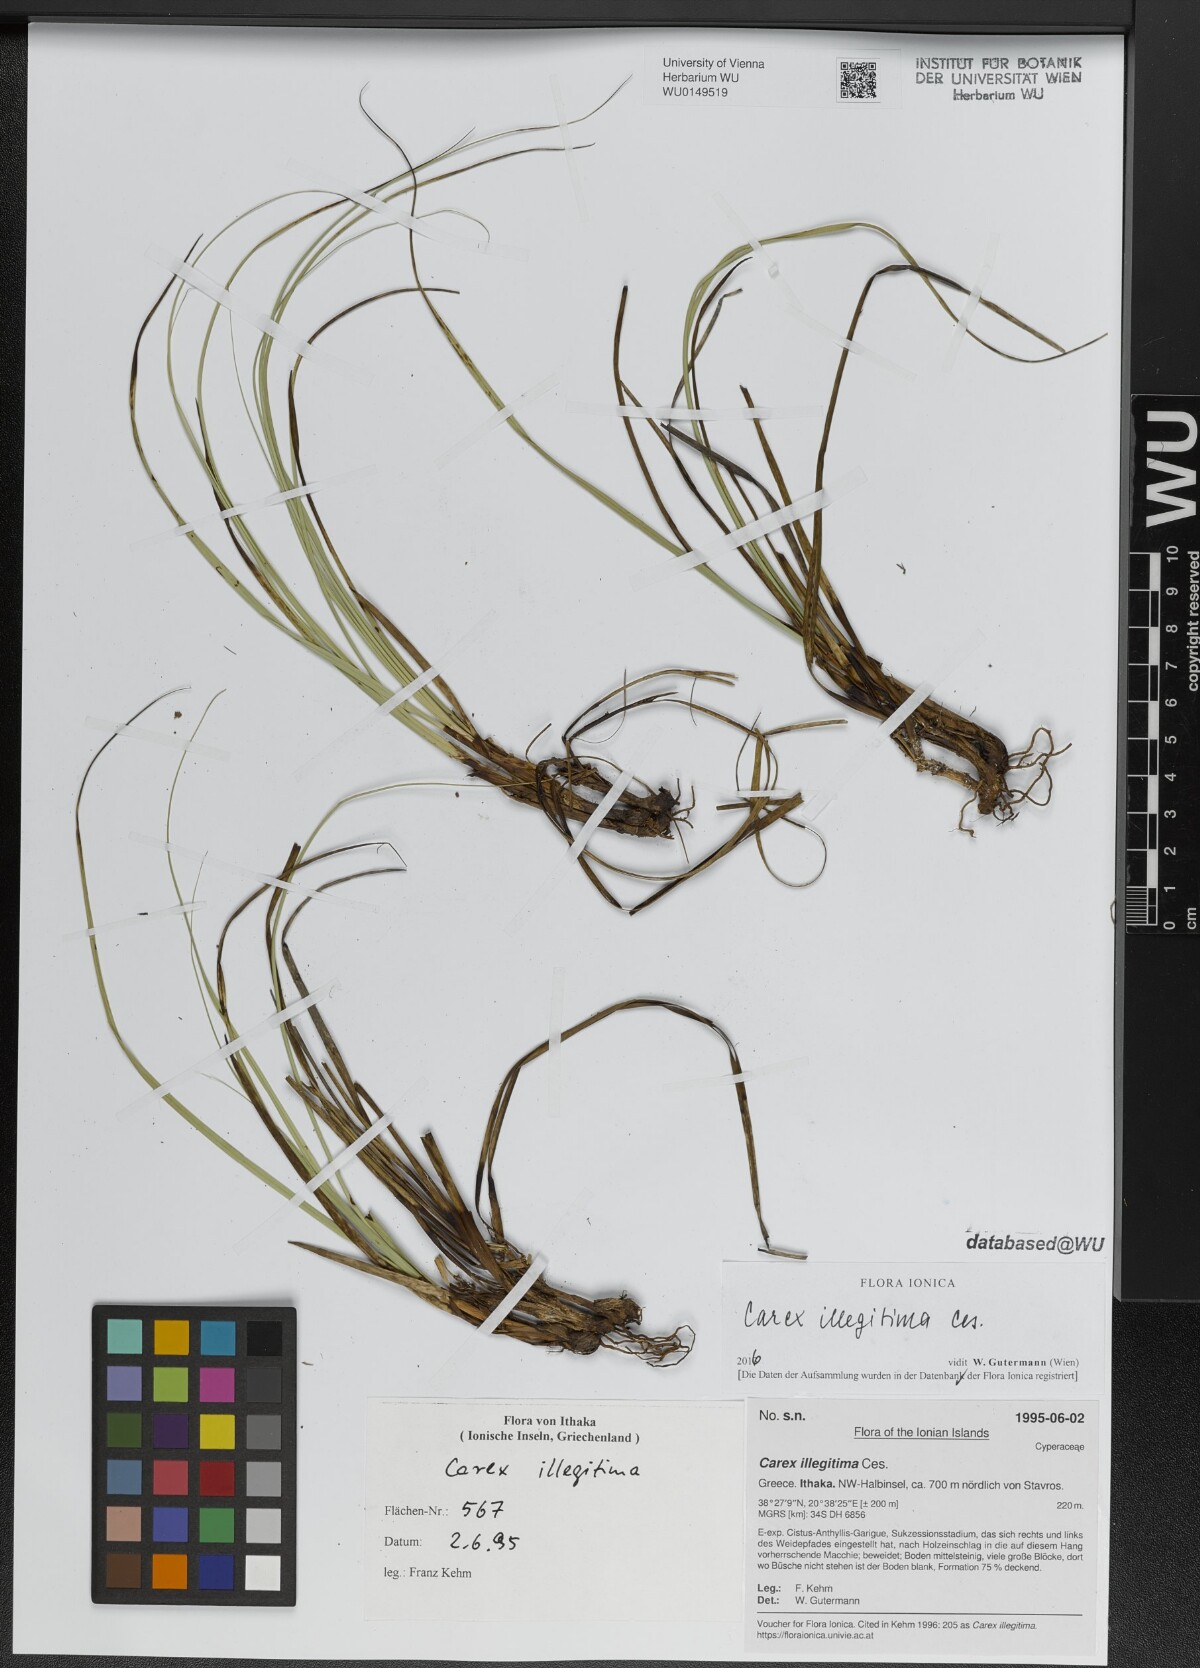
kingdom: Plantae
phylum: Tracheophyta
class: Liliopsida
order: Poales
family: Cyperaceae
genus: Carex
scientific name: Carex illegitima
